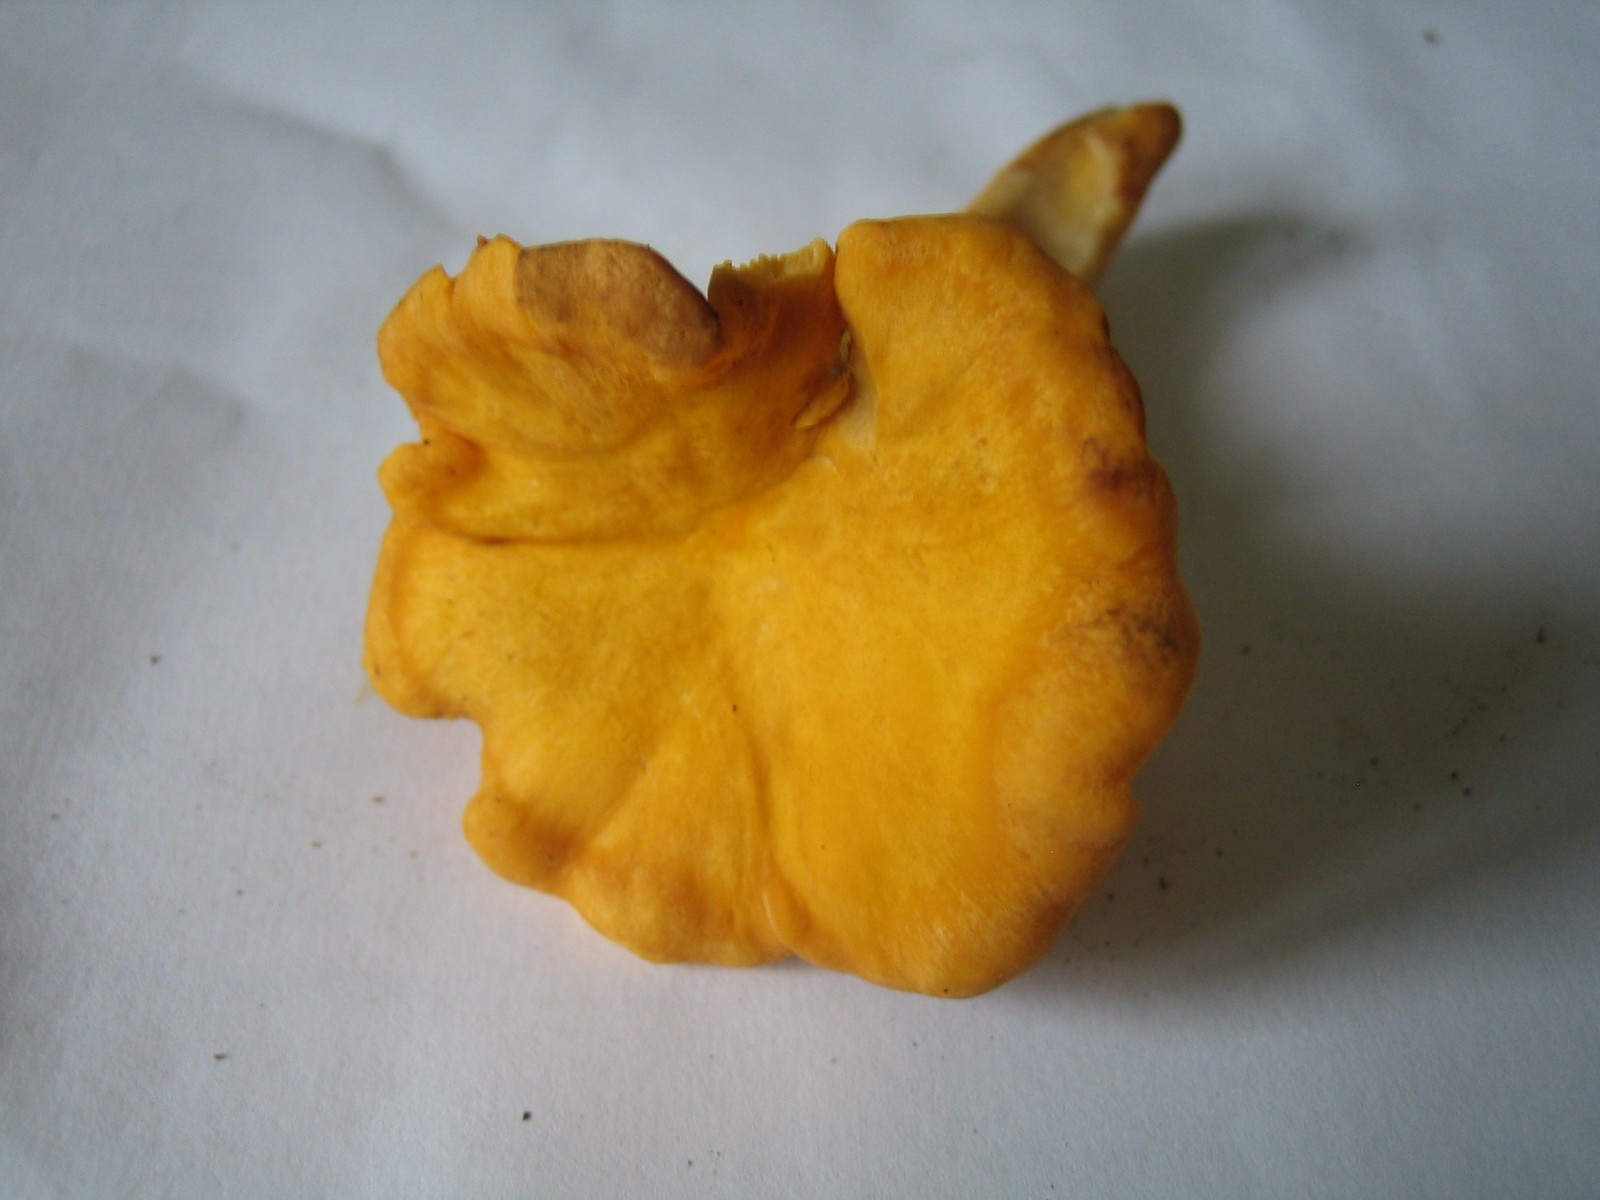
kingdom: Fungi
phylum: Basidiomycota
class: Agaricomycetes
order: Cantharellales
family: Hydnaceae
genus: Cantharellus
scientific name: Cantharellus cibarius
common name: almindelig kantarel
